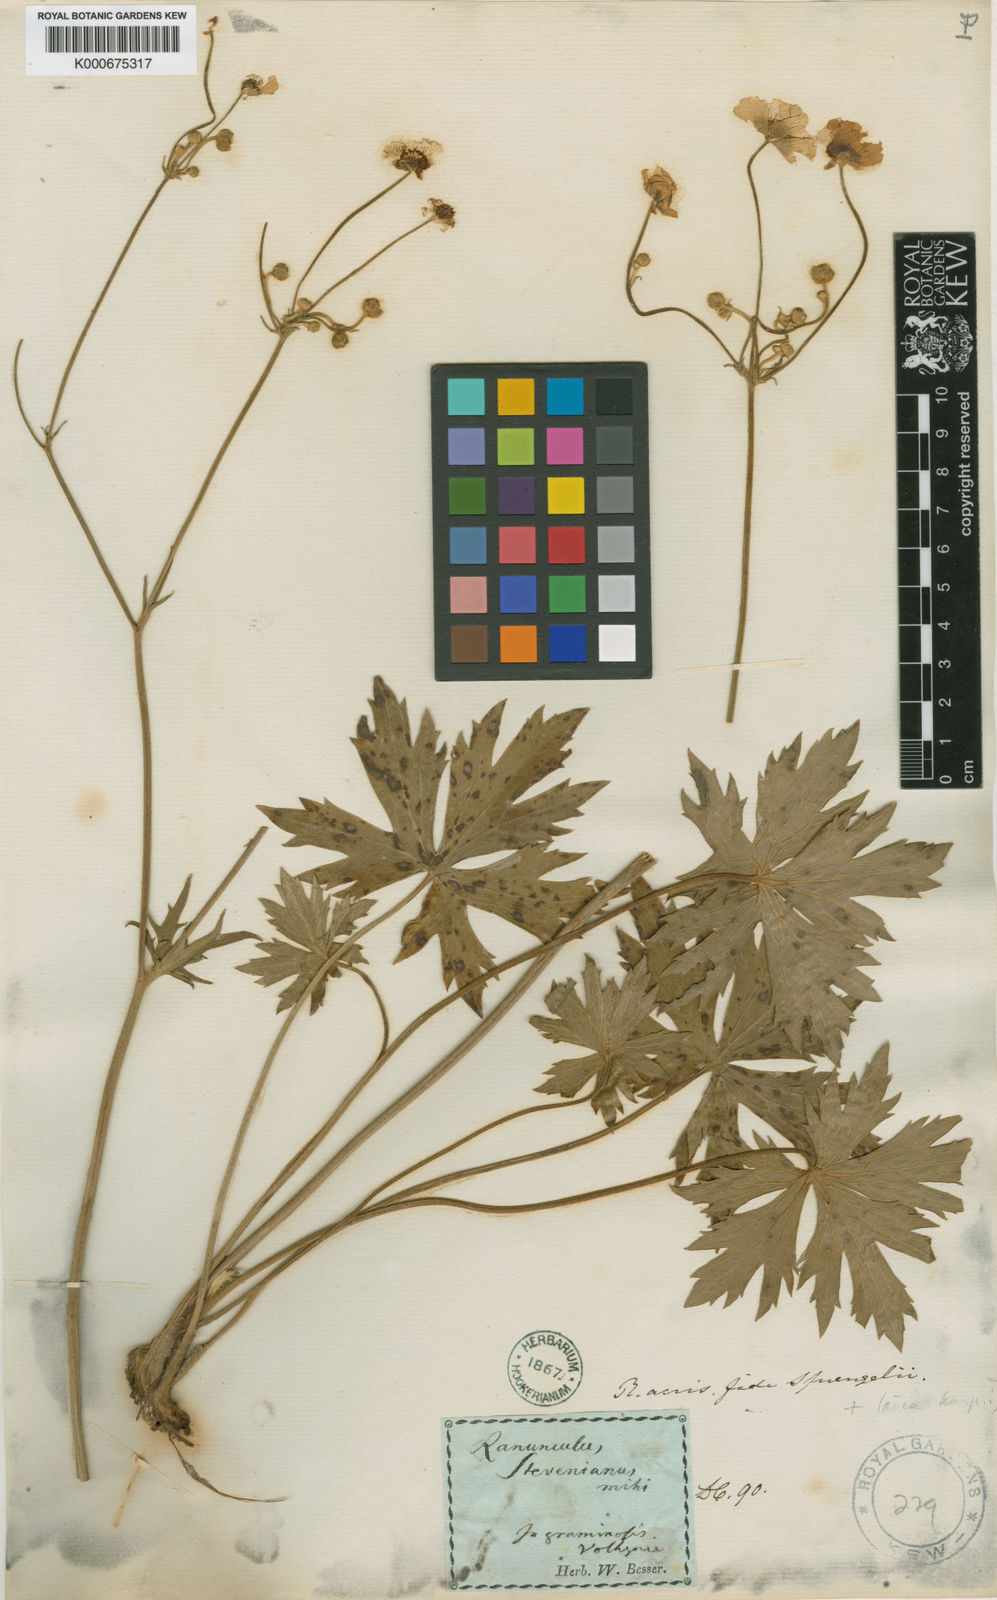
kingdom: Plantae
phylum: Tracheophyta
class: Magnoliopsida
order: Ranunculales
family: Ranunculaceae
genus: Ranunculus
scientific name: Ranunculus acris
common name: Meadow buttercup
